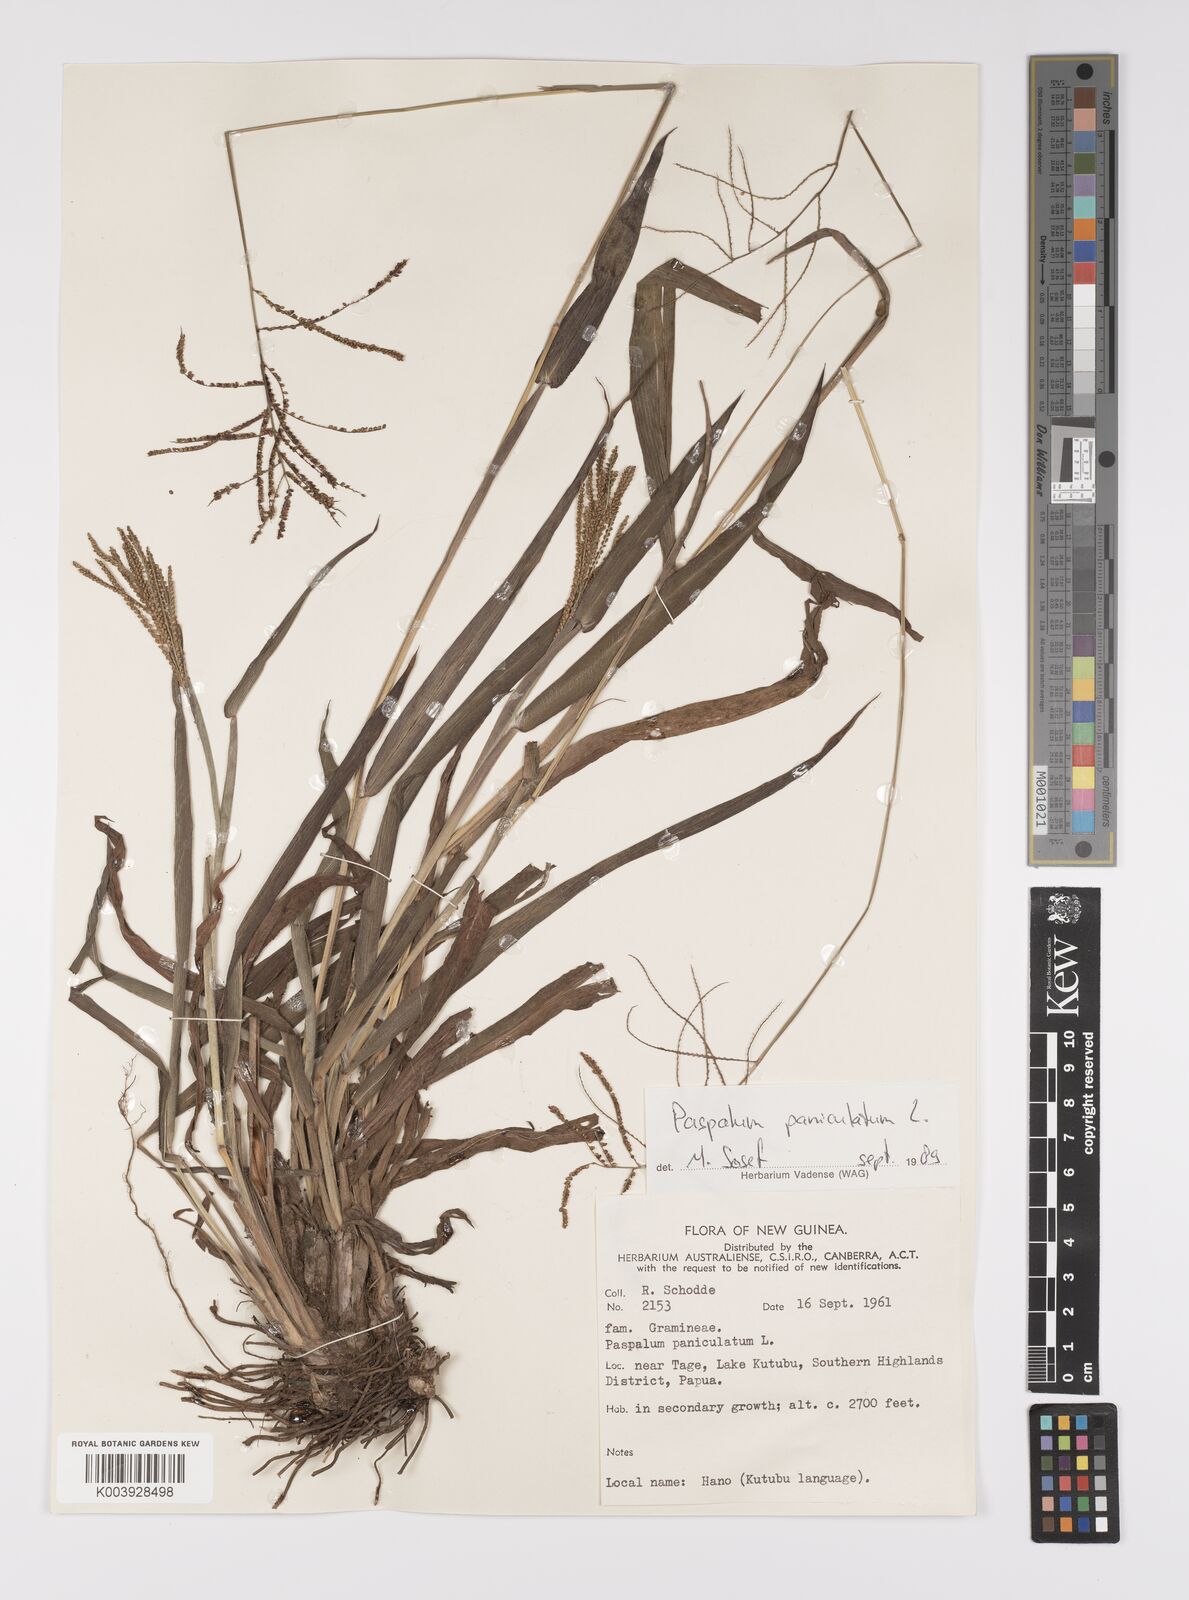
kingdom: Plantae
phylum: Tracheophyta
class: Liliopsida
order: Poales
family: Poaceae
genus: Paspalum
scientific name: Paspalum paniculatum
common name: Arrocillo
